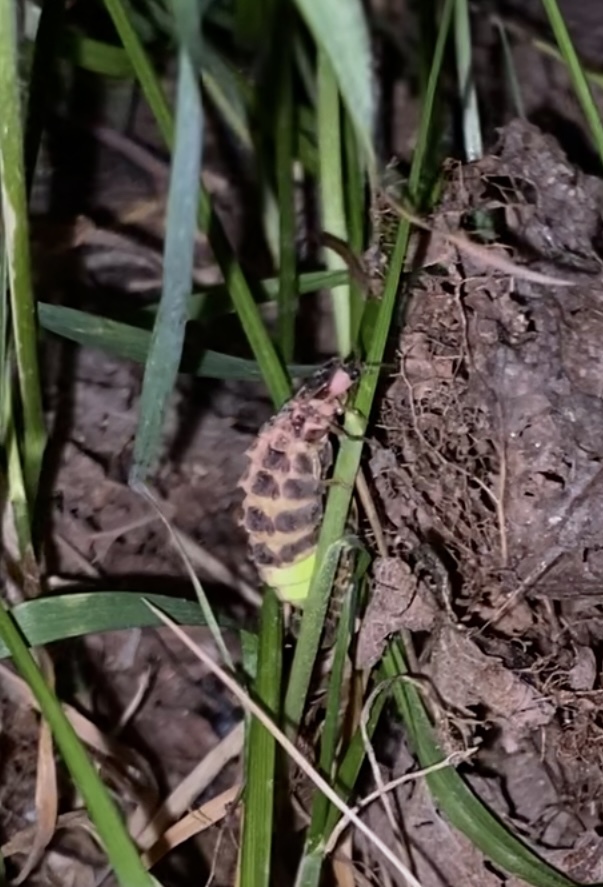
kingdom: Animalia
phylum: Arthropoda
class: Insecta
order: Coleoptera
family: Lampyridae
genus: Lampyris
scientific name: Lampyris noctiluca
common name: Glow-worm
